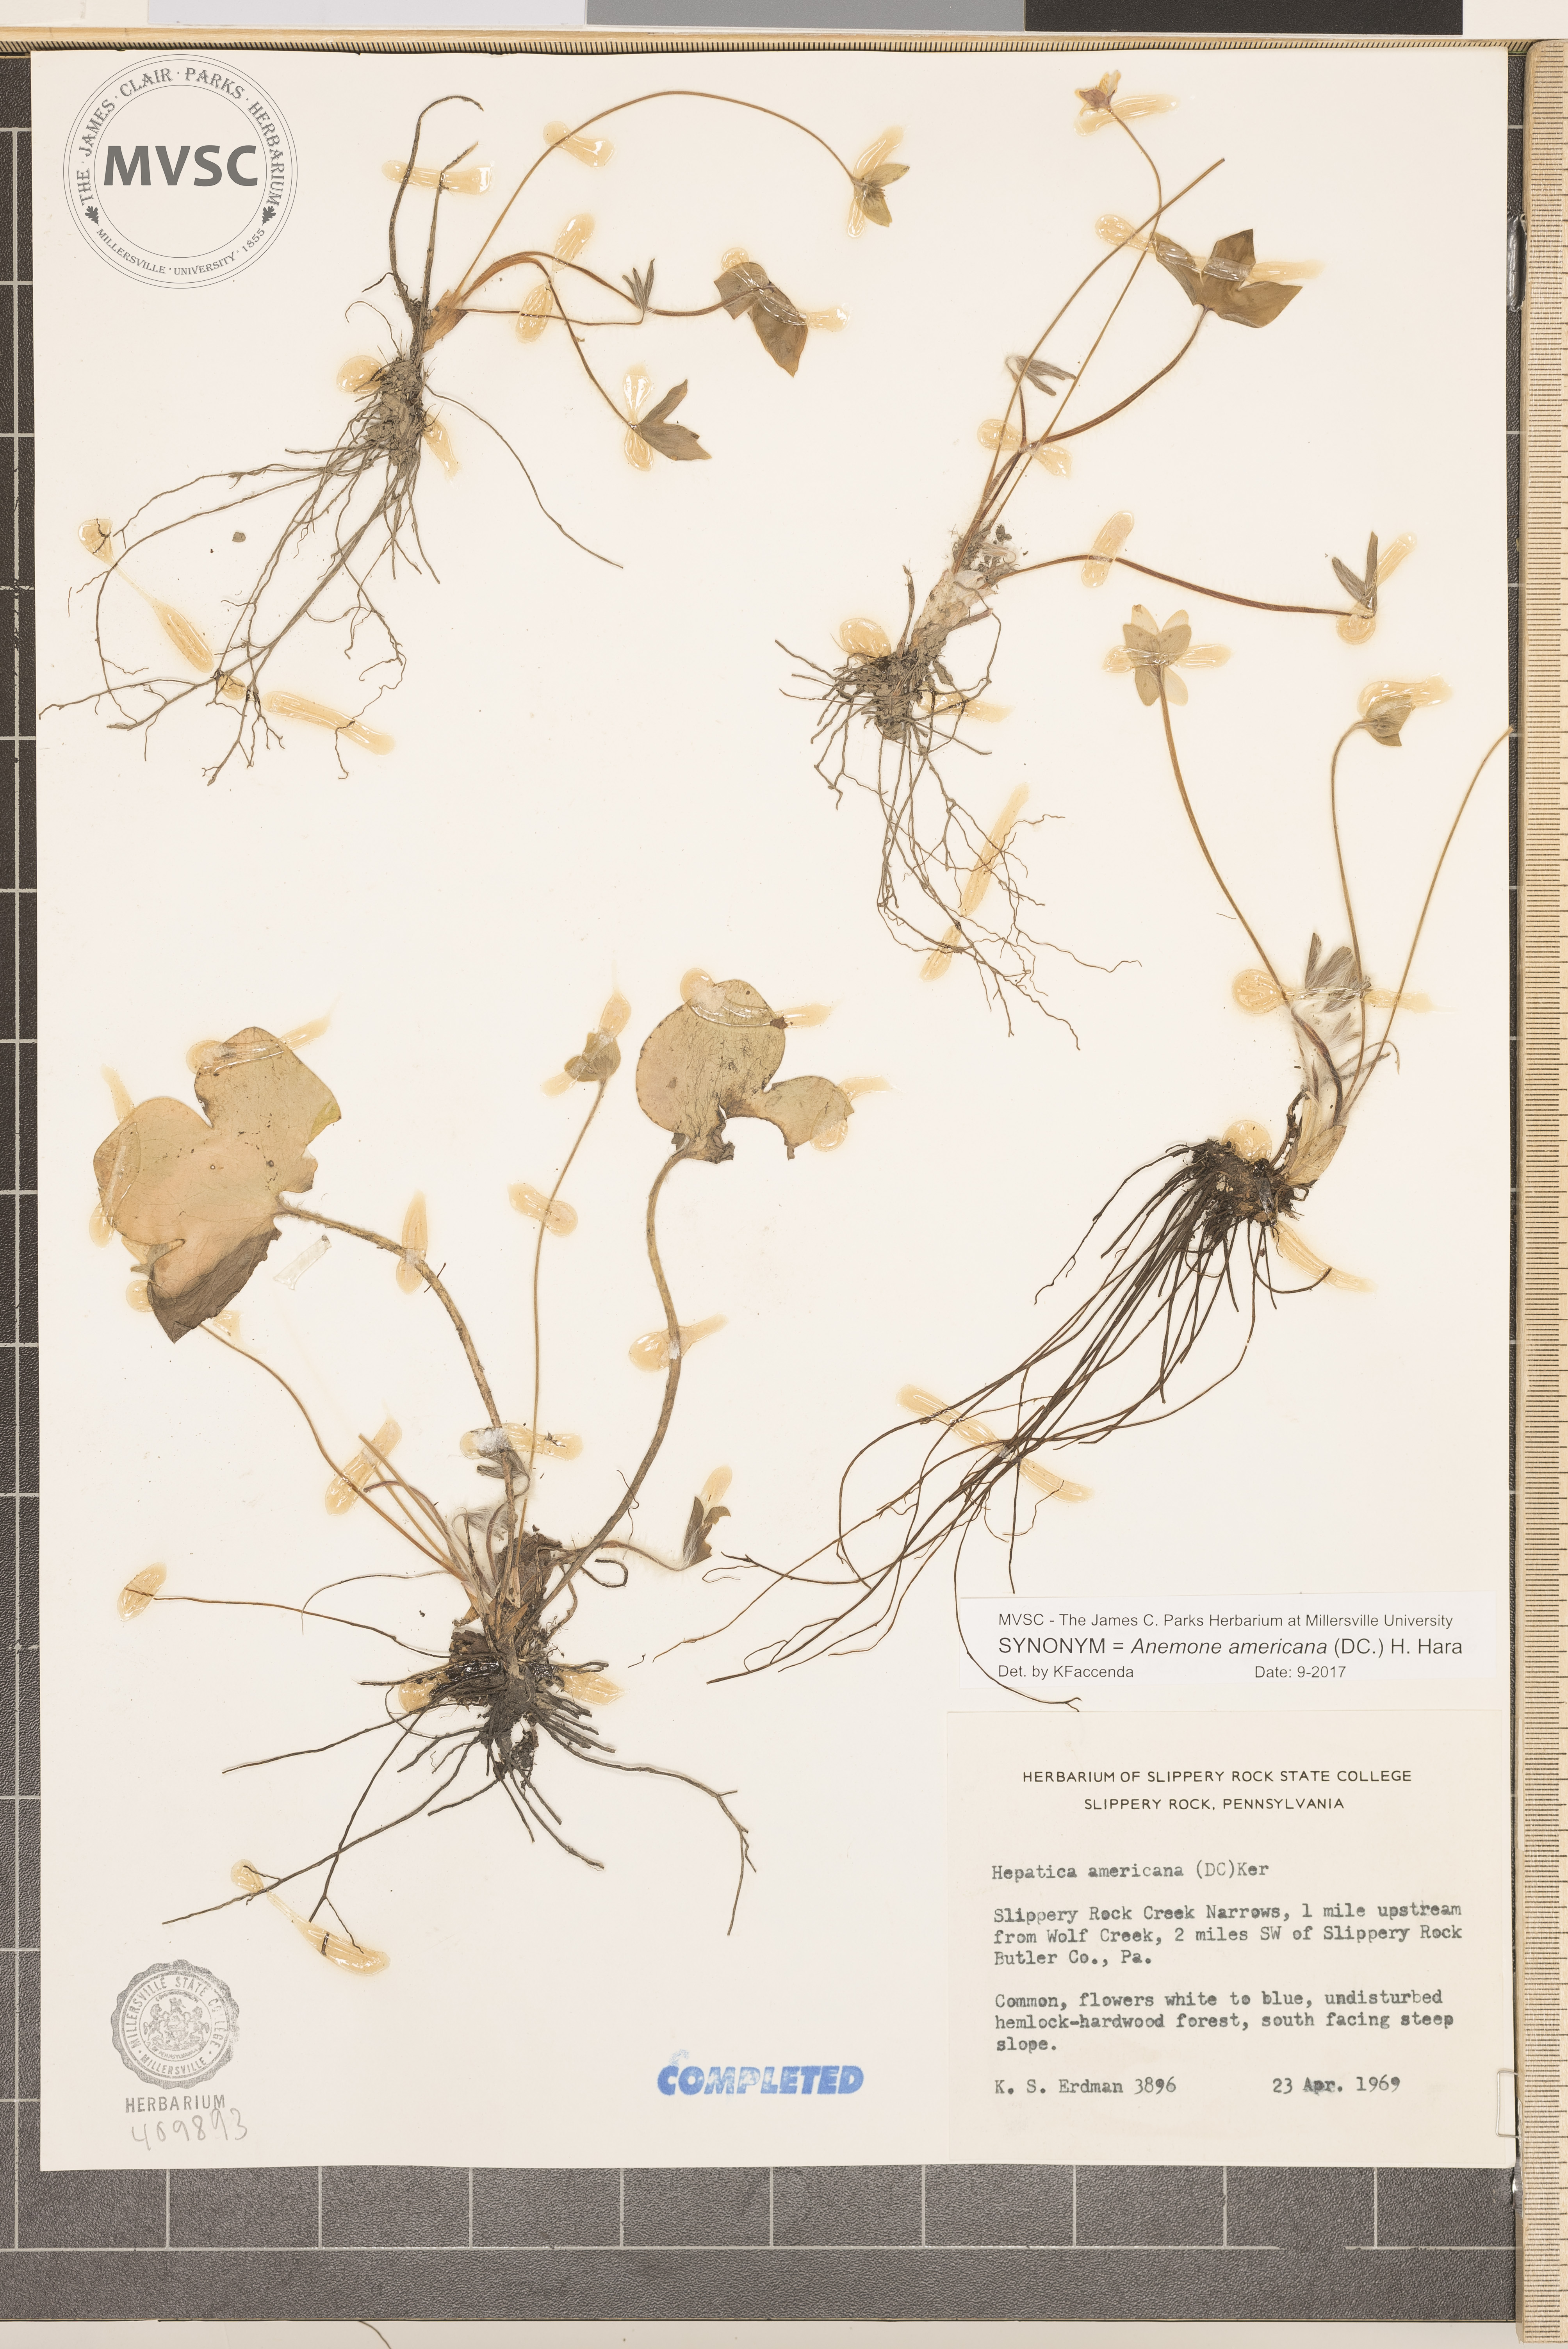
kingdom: Plantae
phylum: Tracheophyta
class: Magnoliopsida
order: Ranunculales
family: Ranunculaceae
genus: Hepatica
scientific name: Hepatica americana
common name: American hepatica
